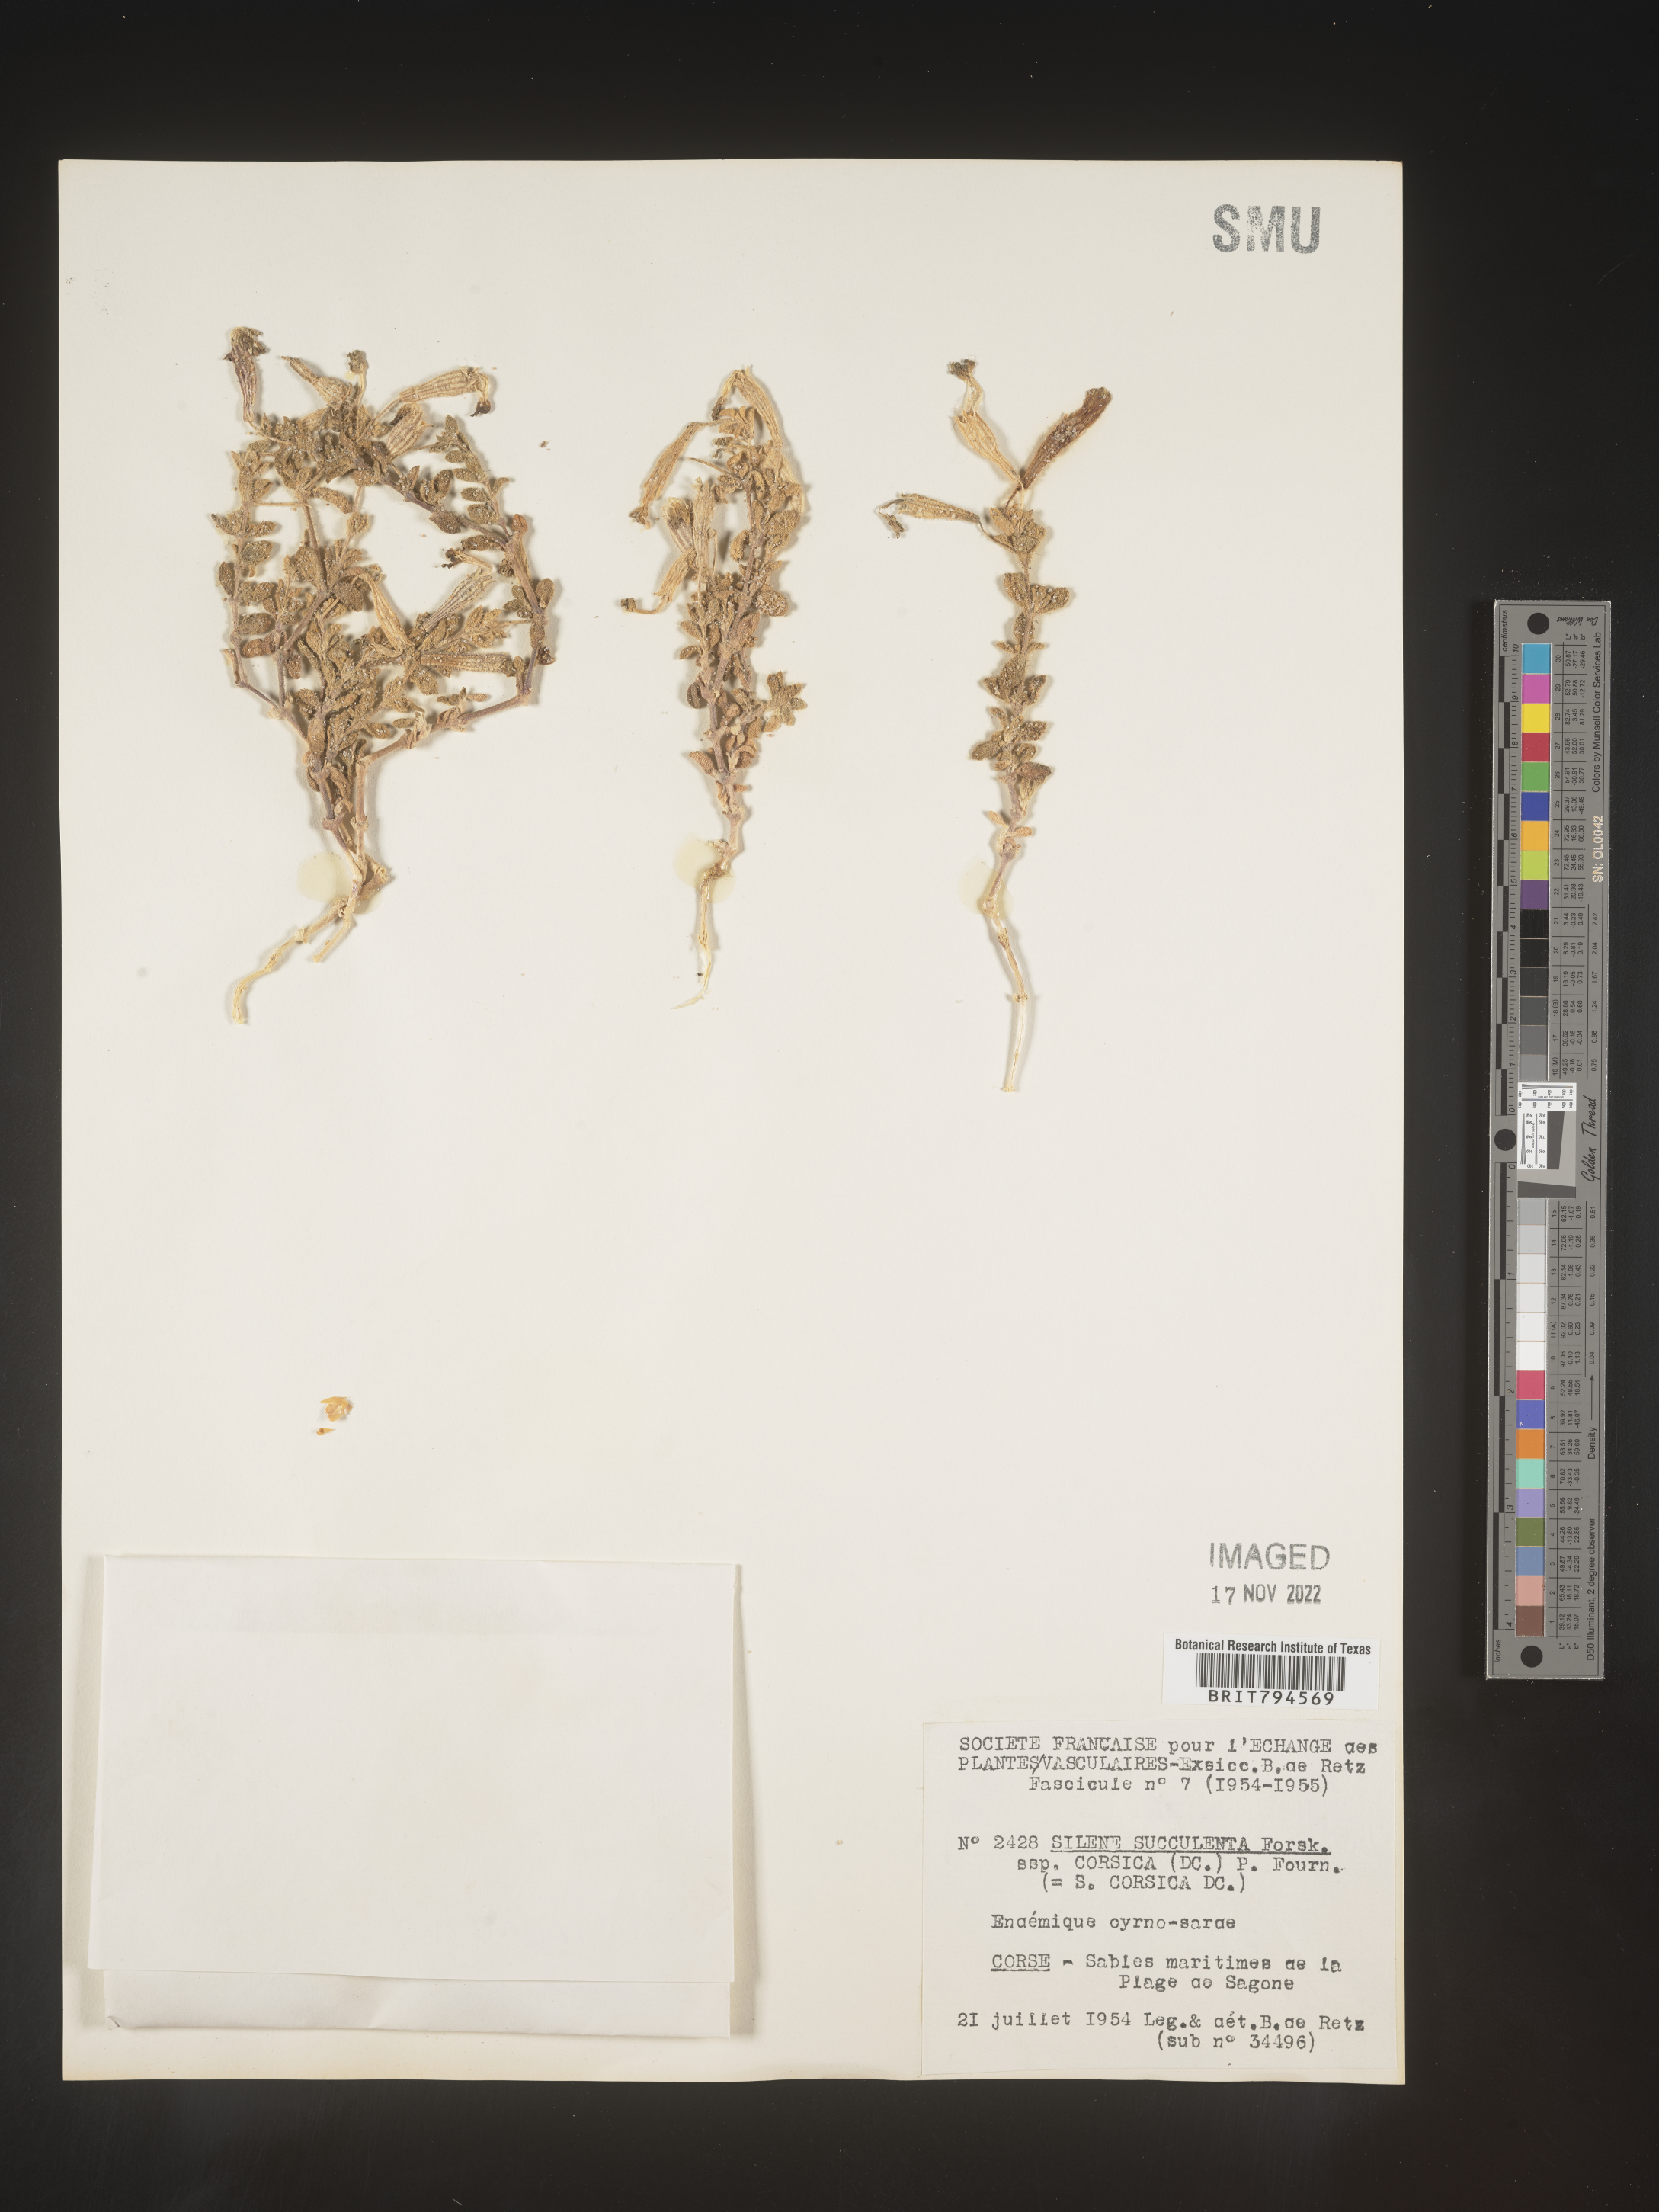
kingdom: Plantae
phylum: Tracheophyta
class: Magnoliopsida
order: Caryophyllales
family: Caryophyllaceae
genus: Silene
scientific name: Silene succulenta
